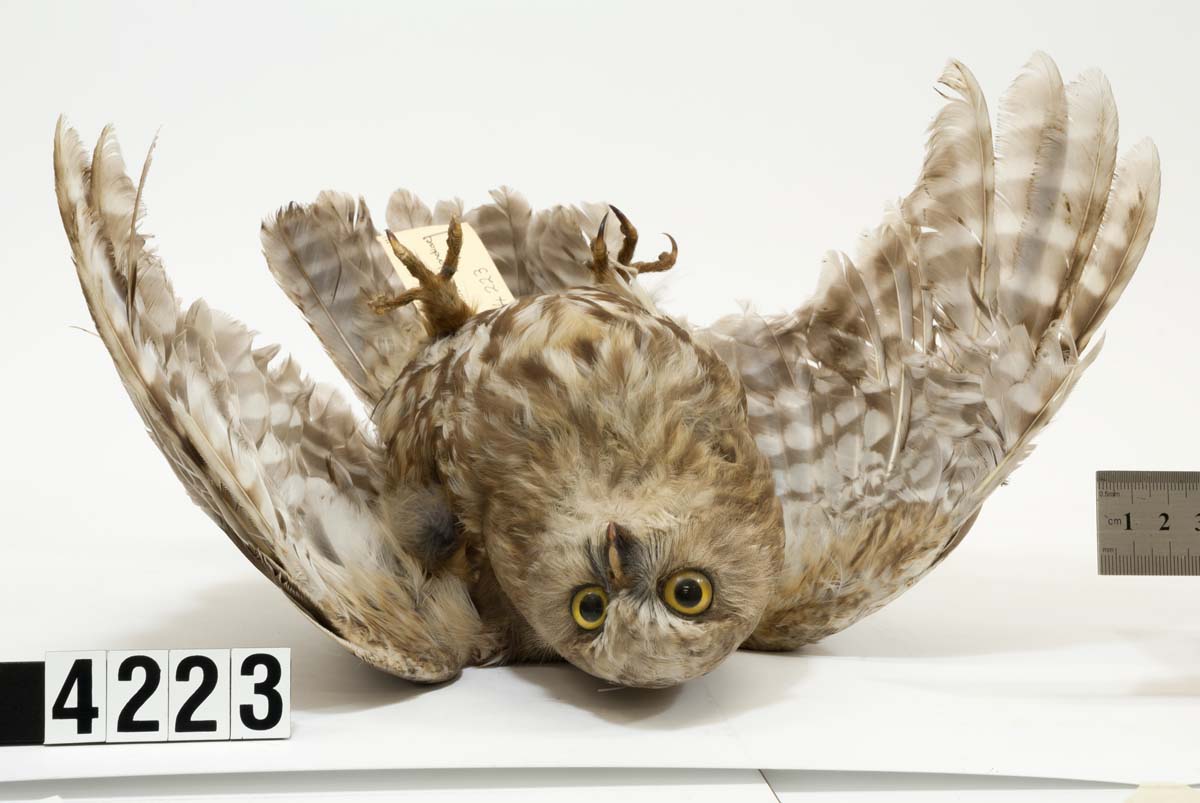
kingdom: Animalia
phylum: Chordata
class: Aves
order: Strigiformes
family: Strigidae
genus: Ninox
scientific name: Ninox novaeseelandiae
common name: Morepork
